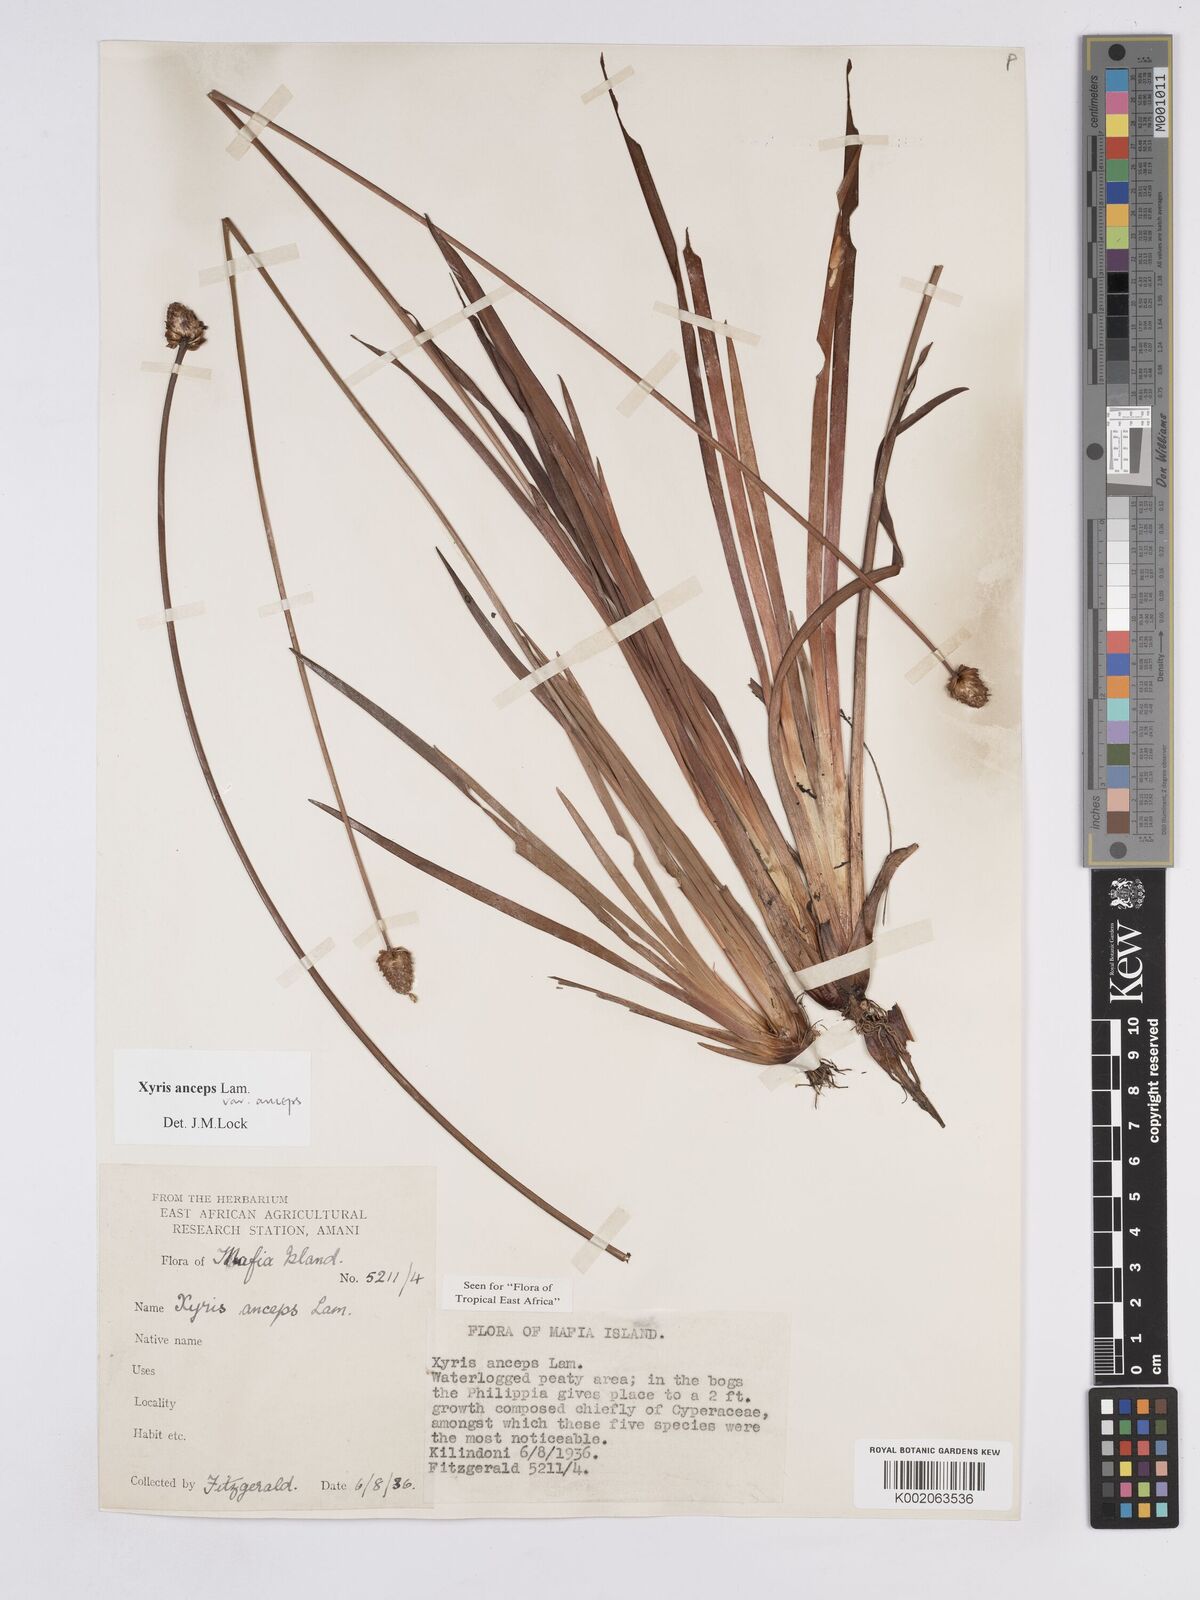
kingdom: Plantae
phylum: Tracheophyta
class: Liliopsida
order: Poales
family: Xyridaceae
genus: Xyris
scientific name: Xyris anceps
